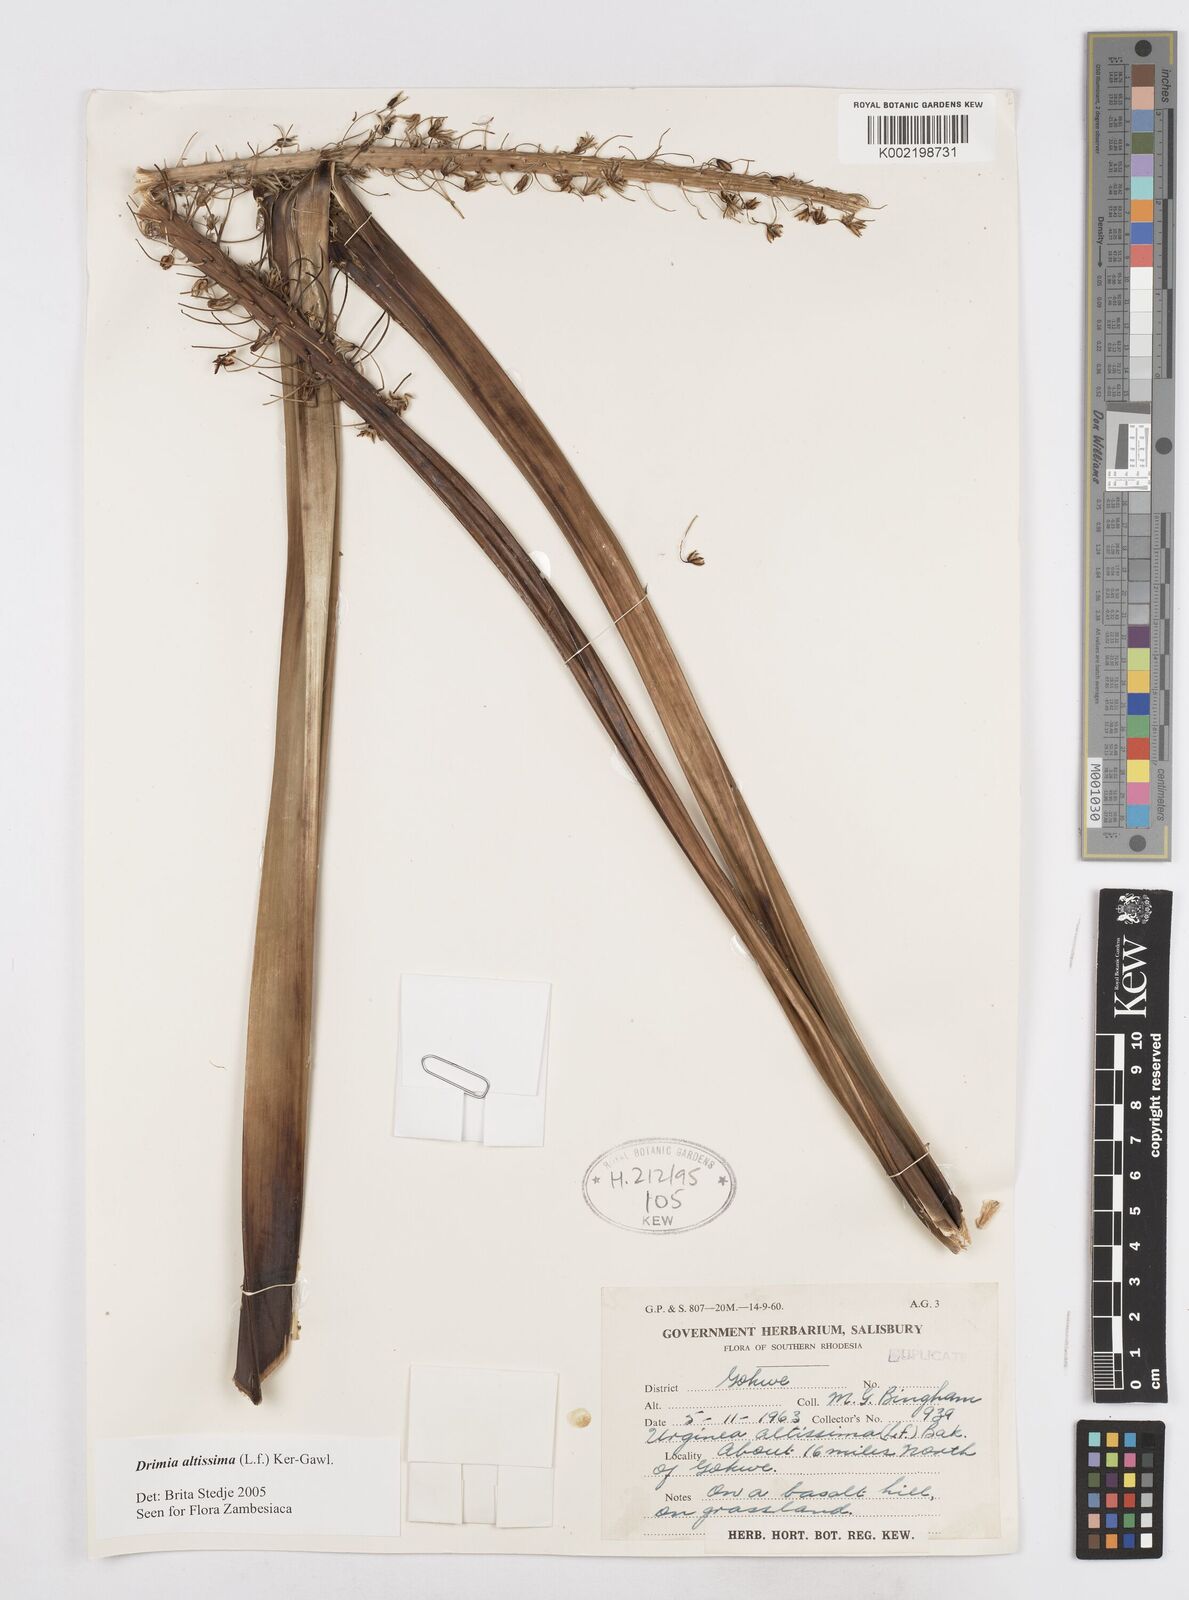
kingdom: Plantae
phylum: Tracheophyta
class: Liliopsida
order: Asparagales
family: Asparagaceae
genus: Drimia
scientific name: Drimia
